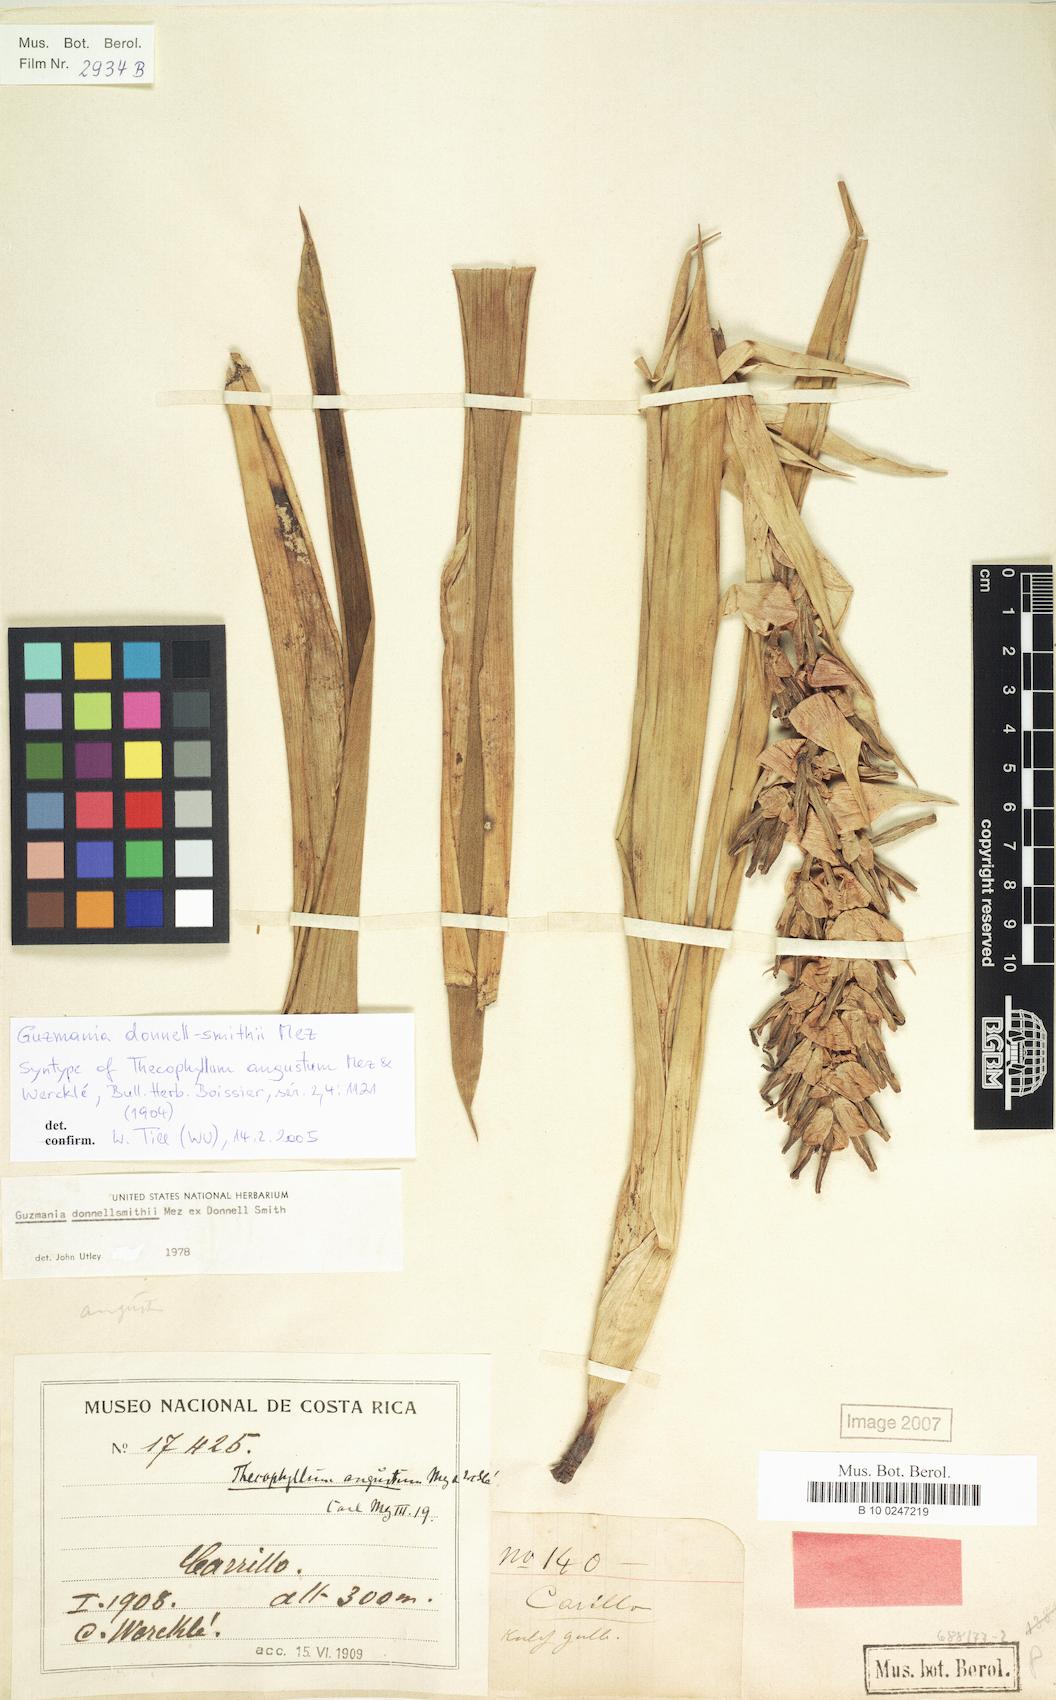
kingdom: Plantae
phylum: Tracheophyta
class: Liliopsida
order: Poales
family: Bromeliaceae
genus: Guzmania
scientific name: Guzmania donnellsmithii
